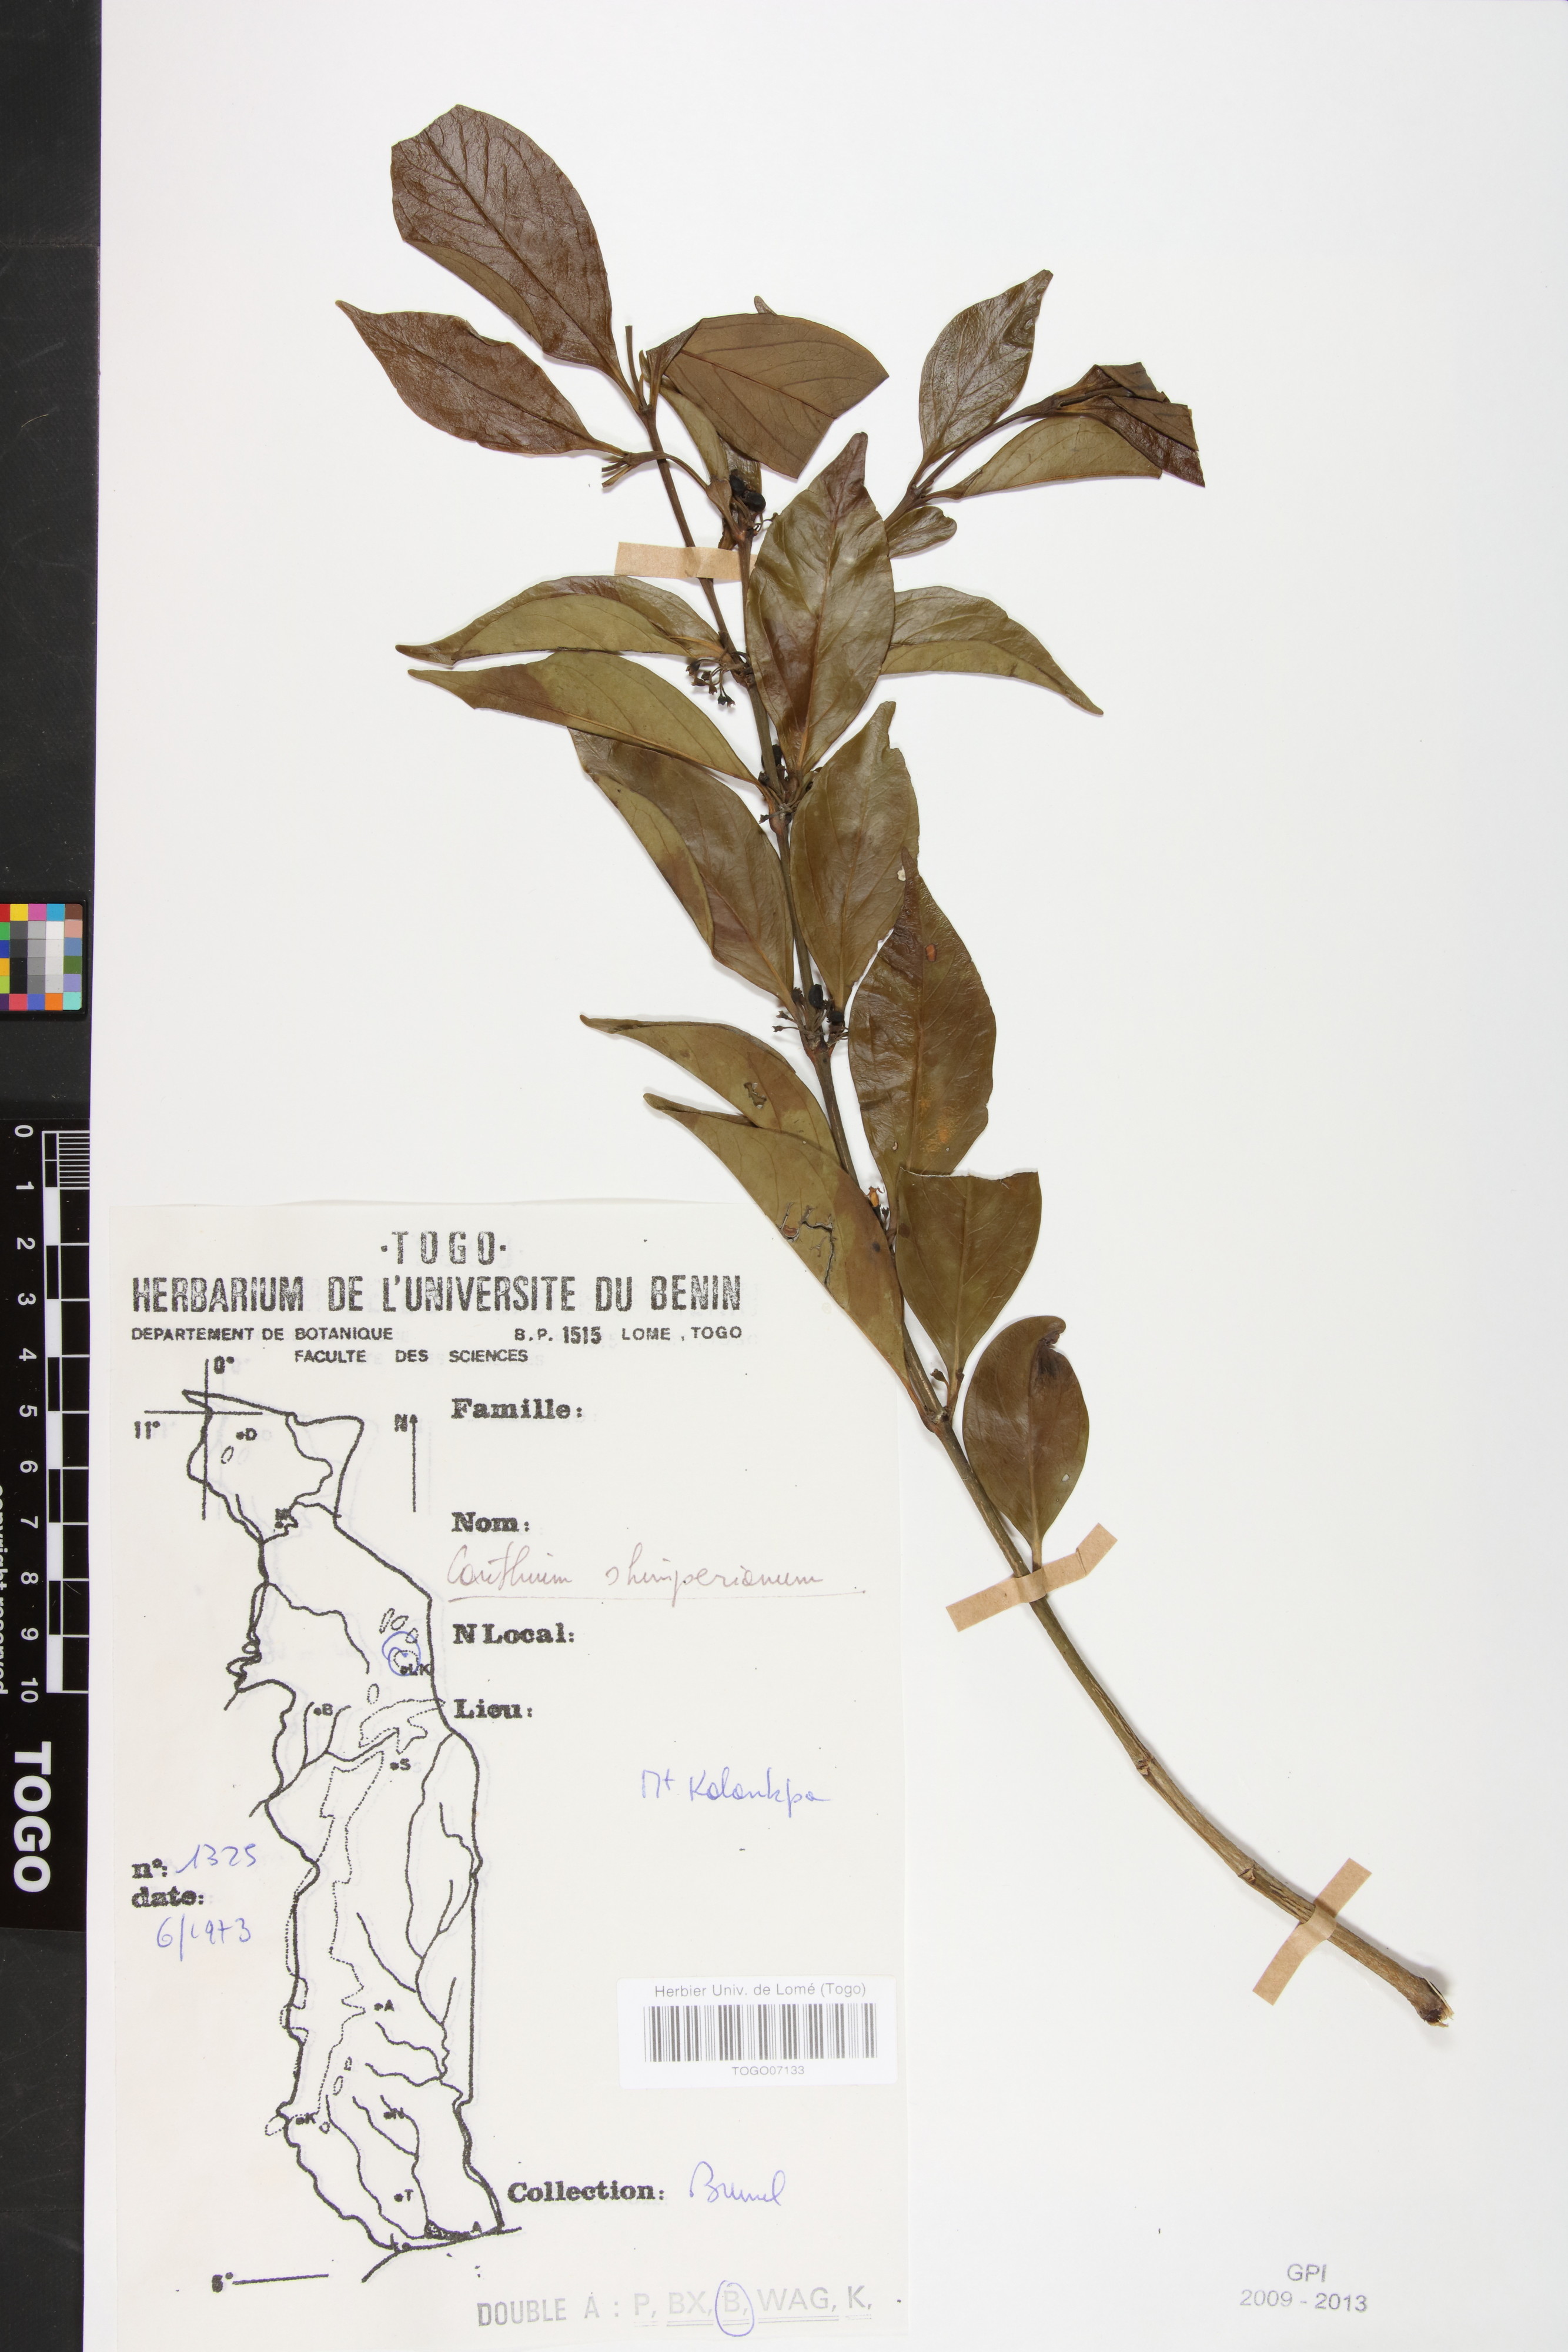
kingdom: Plantae
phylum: Tracheophyta
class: Magnoliopsida
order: Gentianales
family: Rubiaceae
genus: Psydrax
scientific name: Psydrax schimperianus
